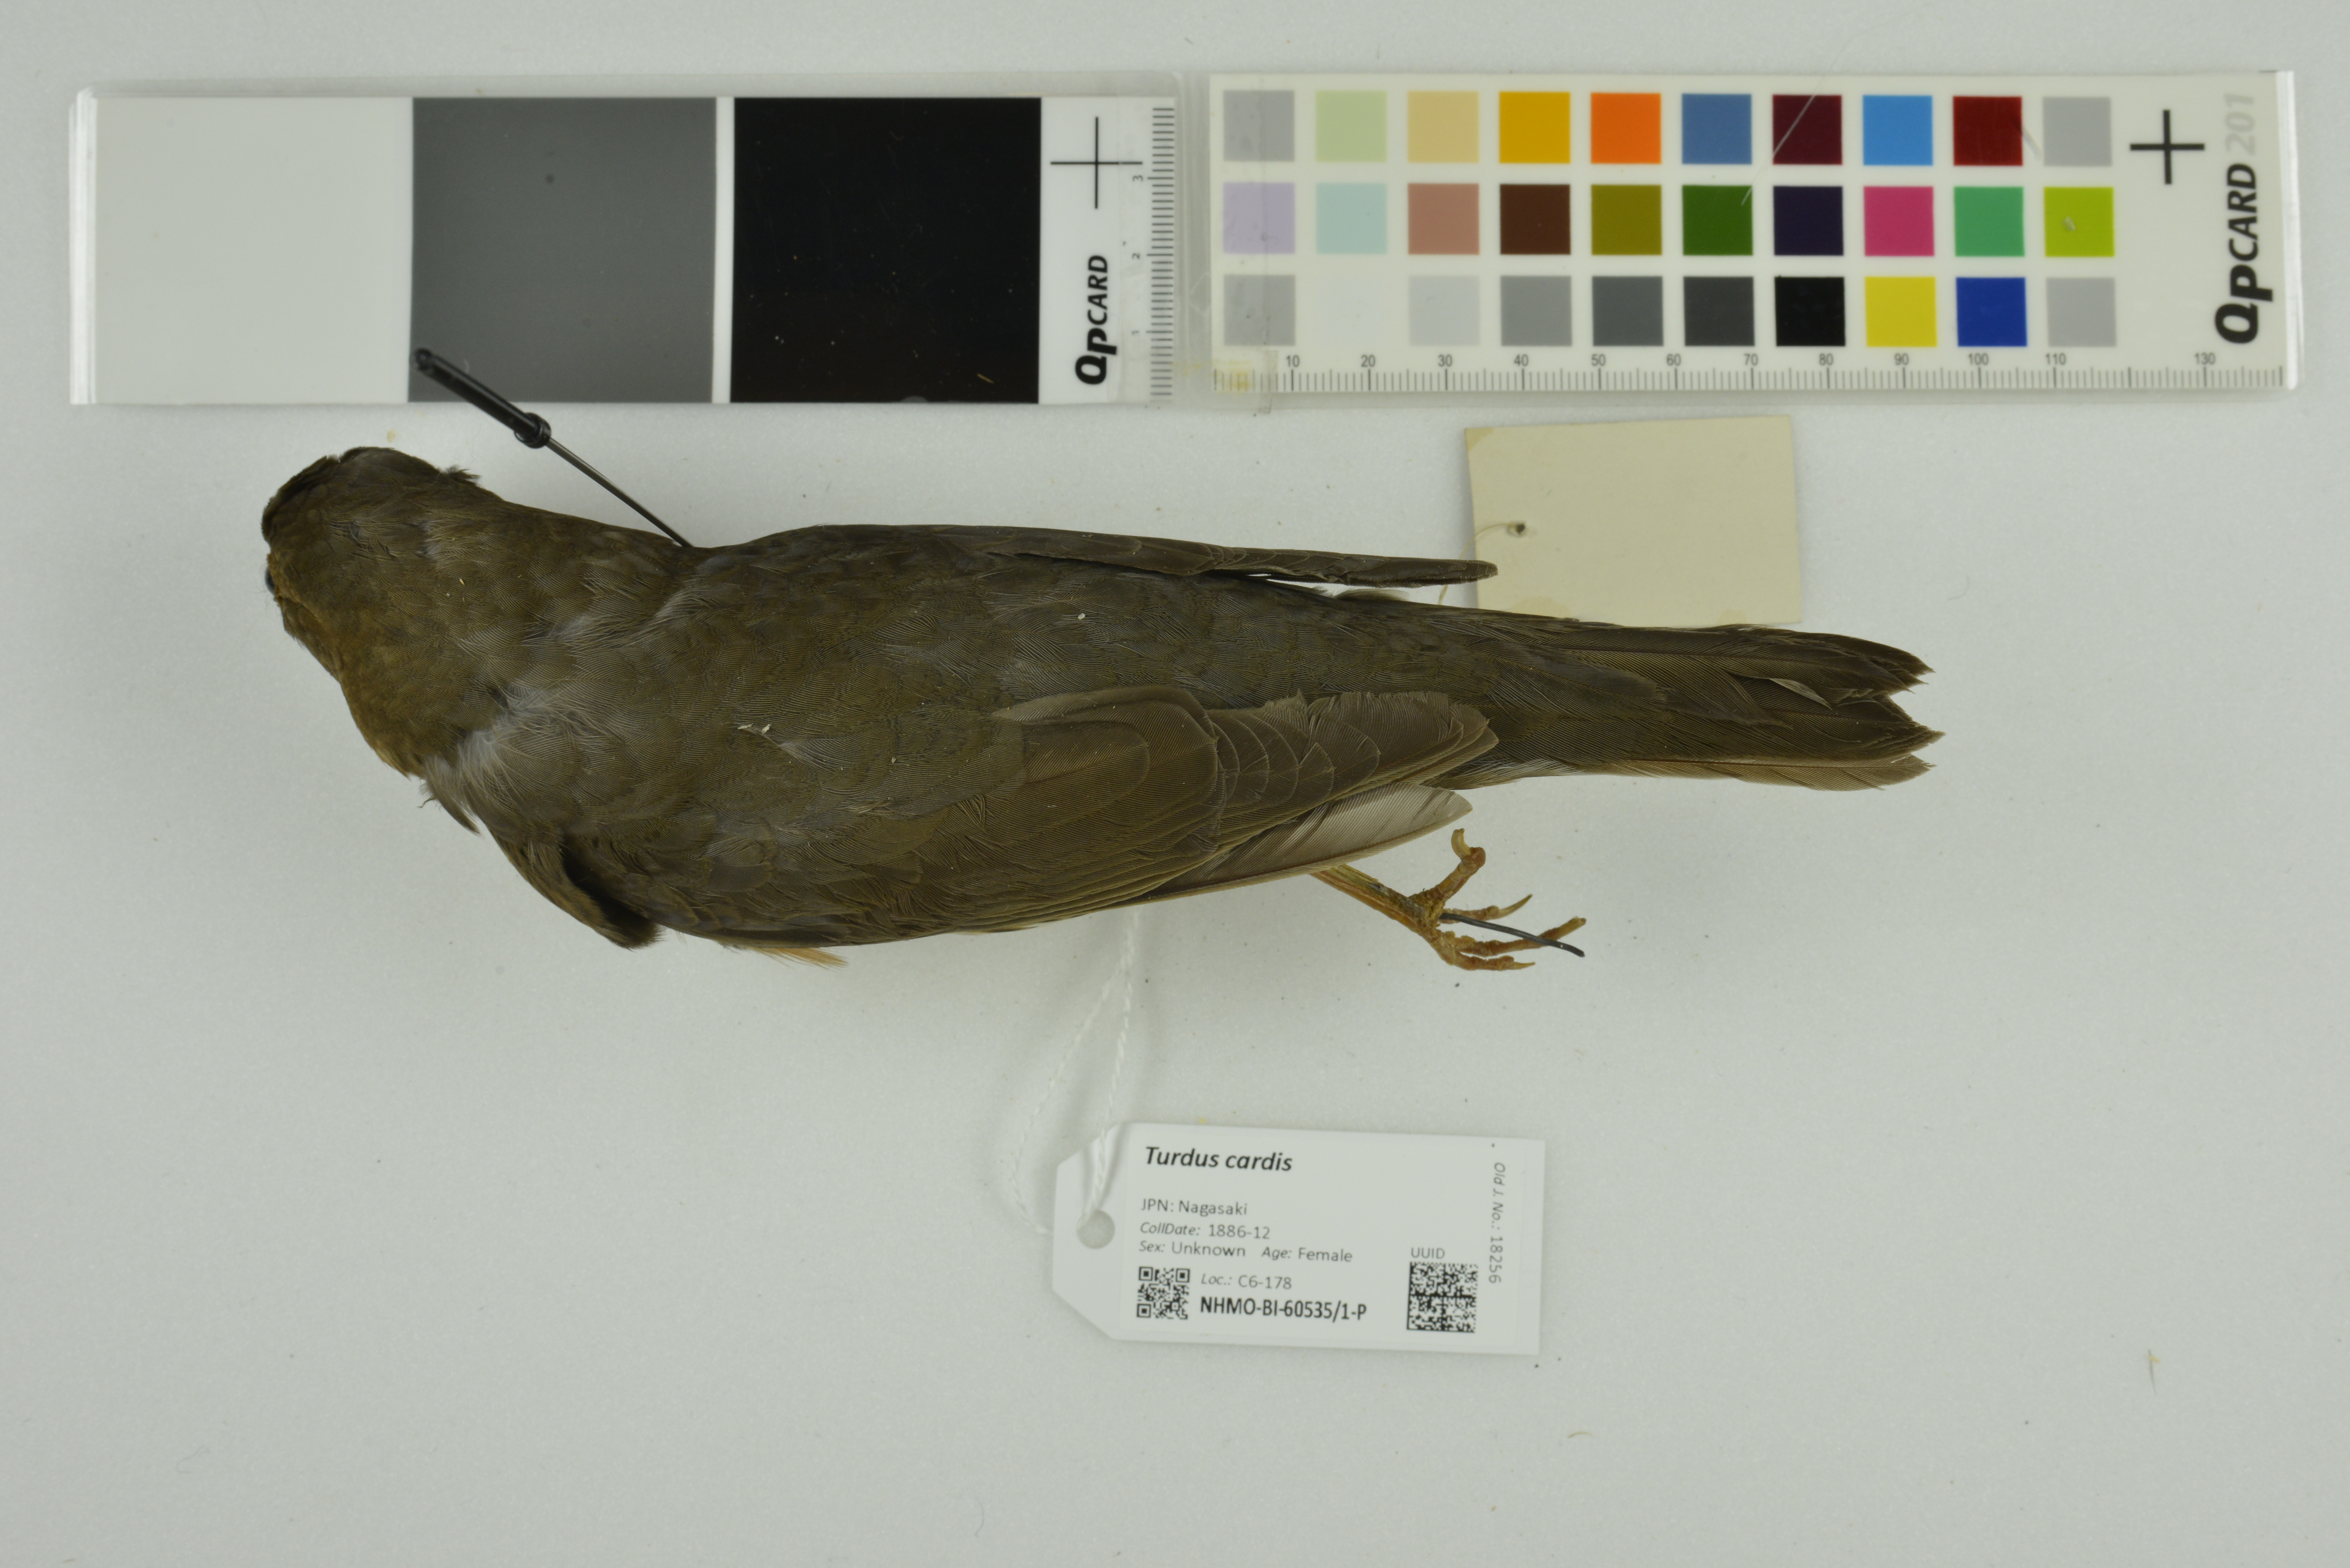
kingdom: Animalia
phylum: Chordata
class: Aves
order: Passeriformes
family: Turdidae
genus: Turdus
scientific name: Turdus cardis
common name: Japanese thrush
